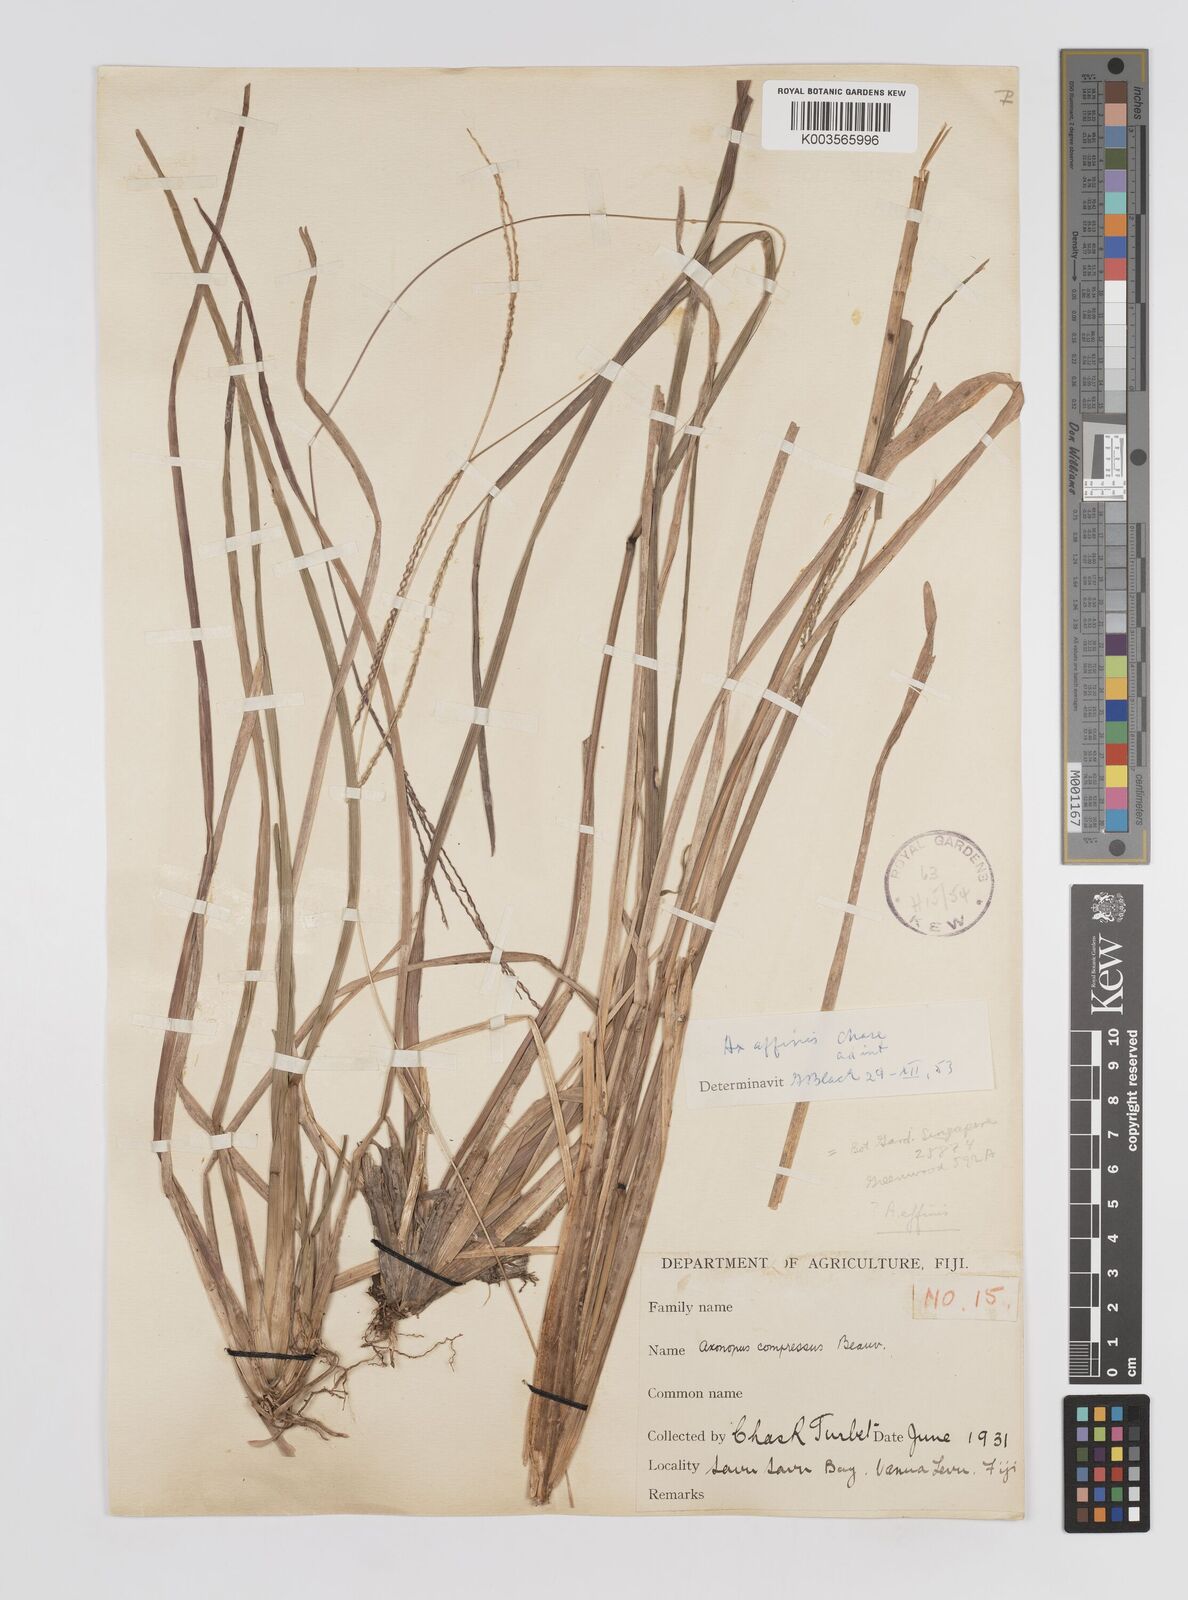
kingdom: Plantae
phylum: Tracheophyta
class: Liliopsida
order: Poales
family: Poaceae
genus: Axonopus
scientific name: Axonopus fissifolius
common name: Common carpetgrass
